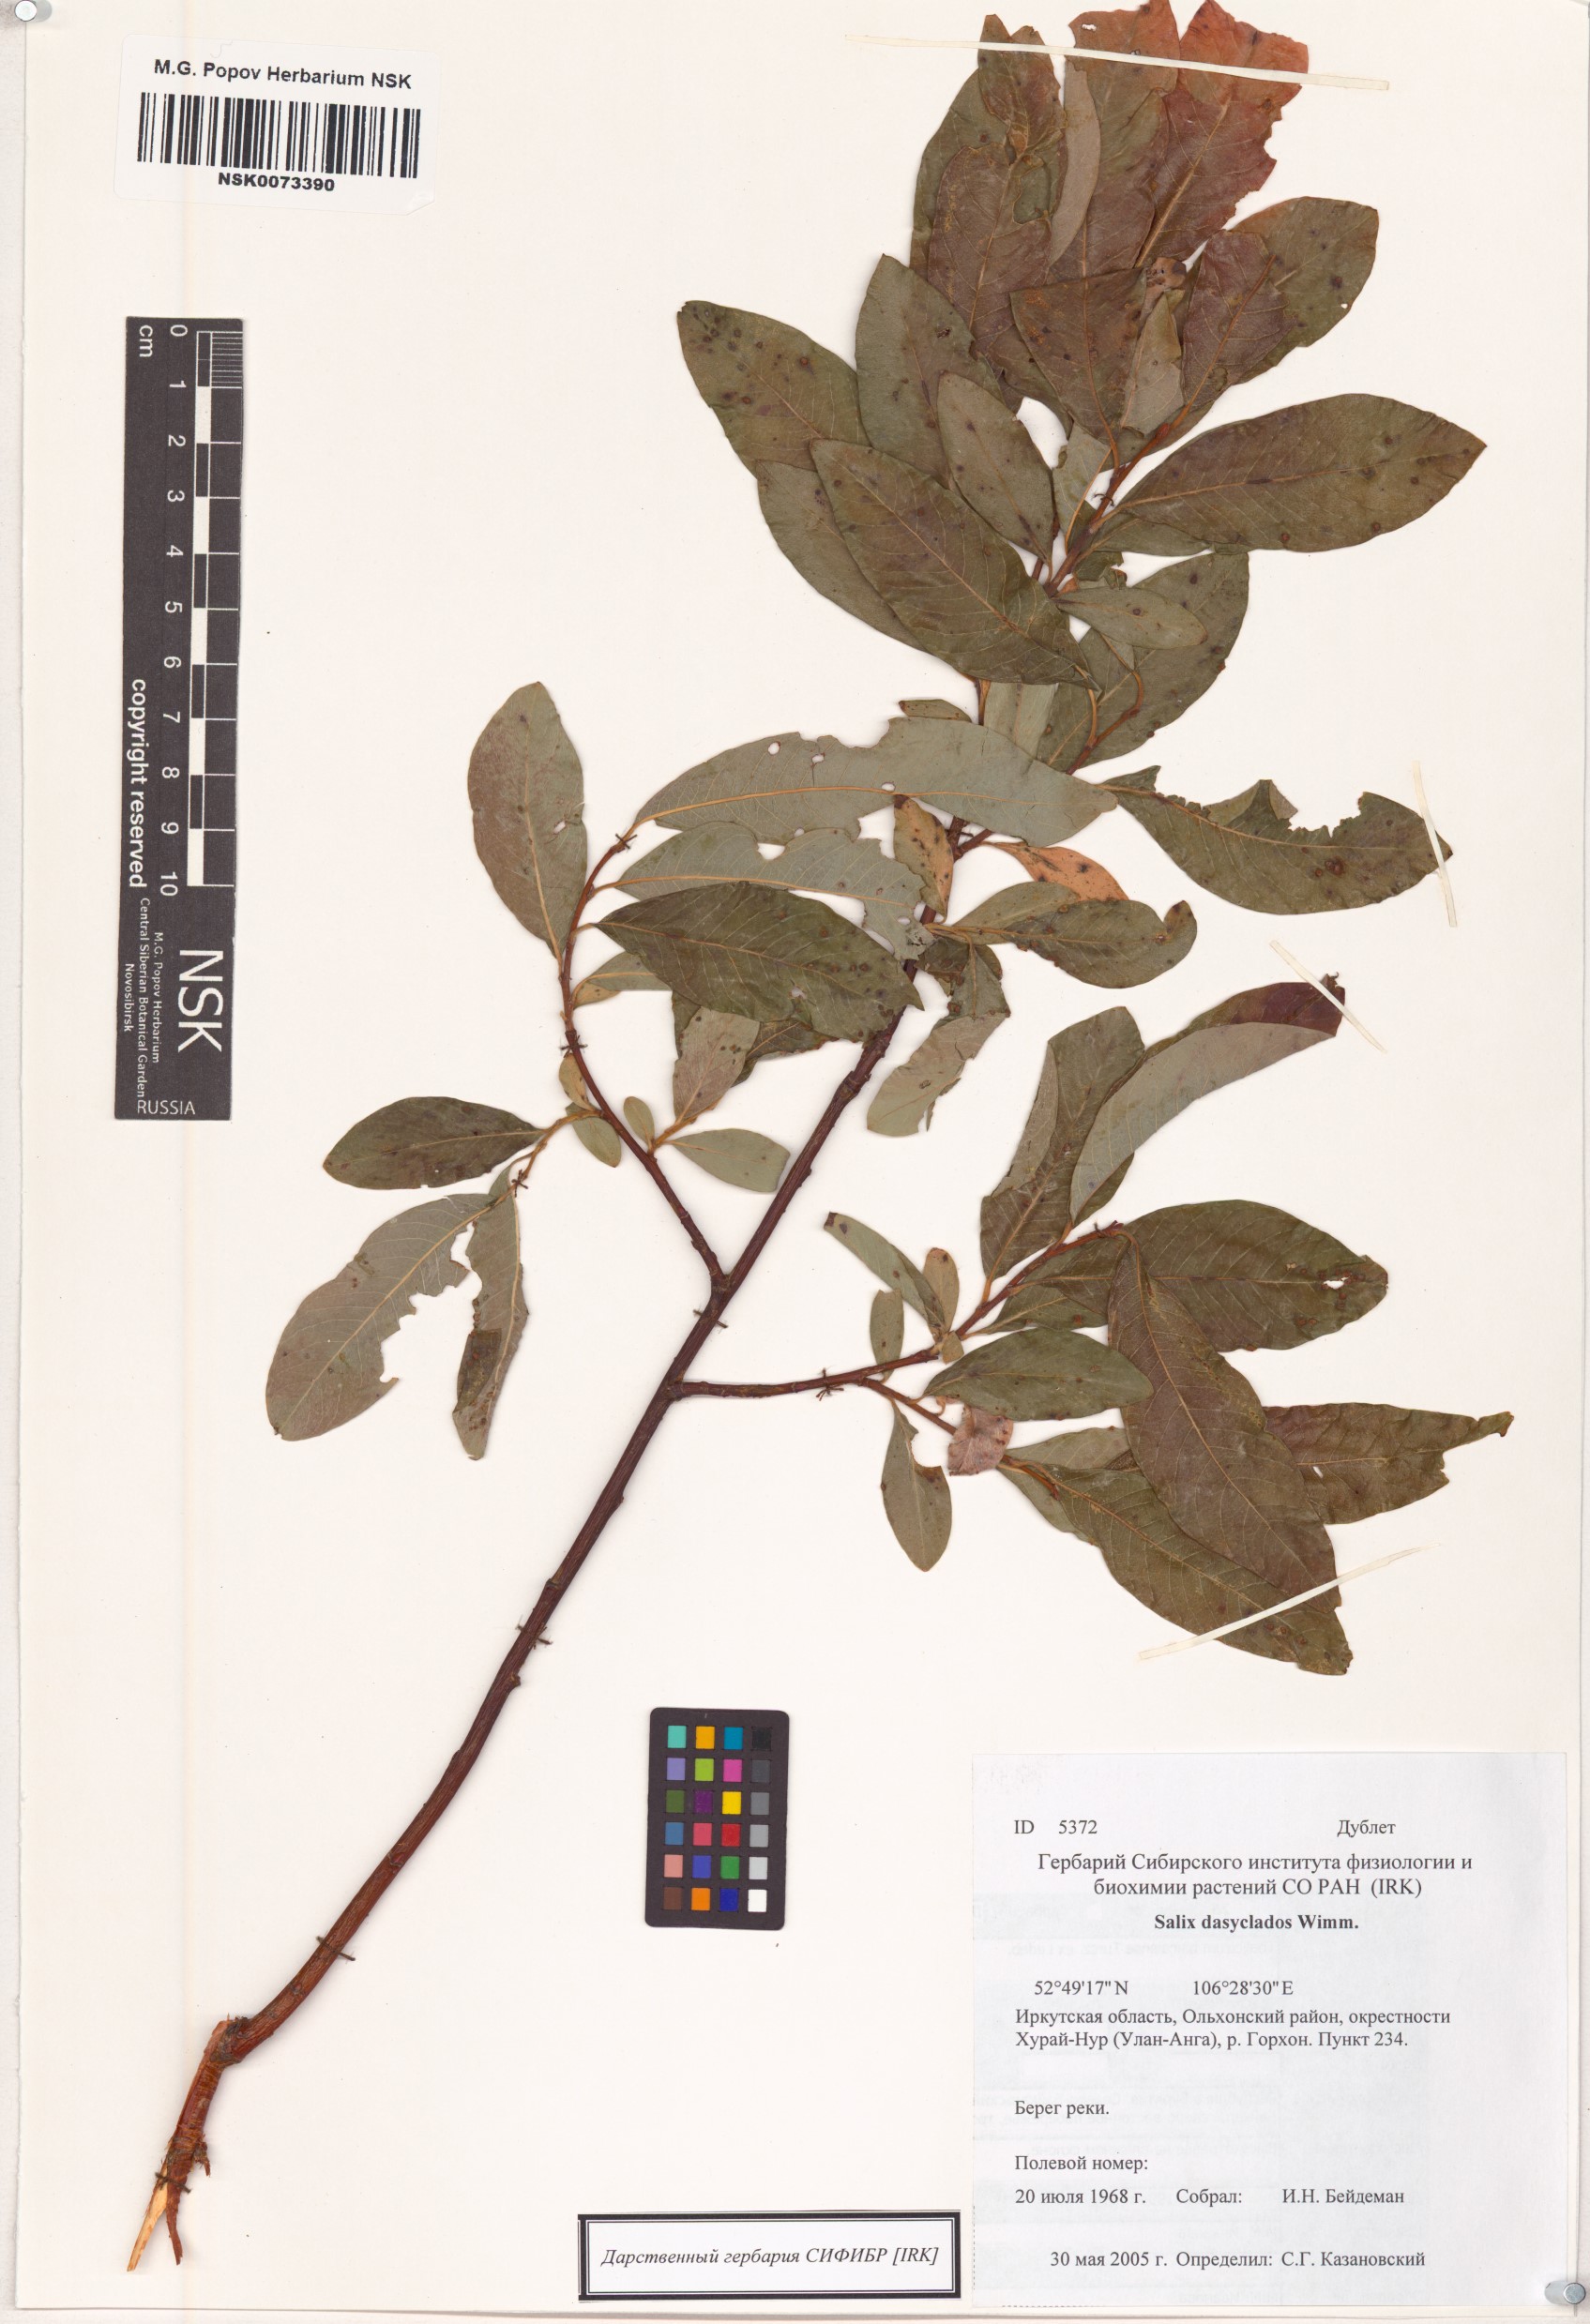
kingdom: Plantae
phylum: Tracheophyta
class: Magnoliopsida
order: Malpighiales
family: Salicaceae
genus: Salix
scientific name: Salix gmelinii
